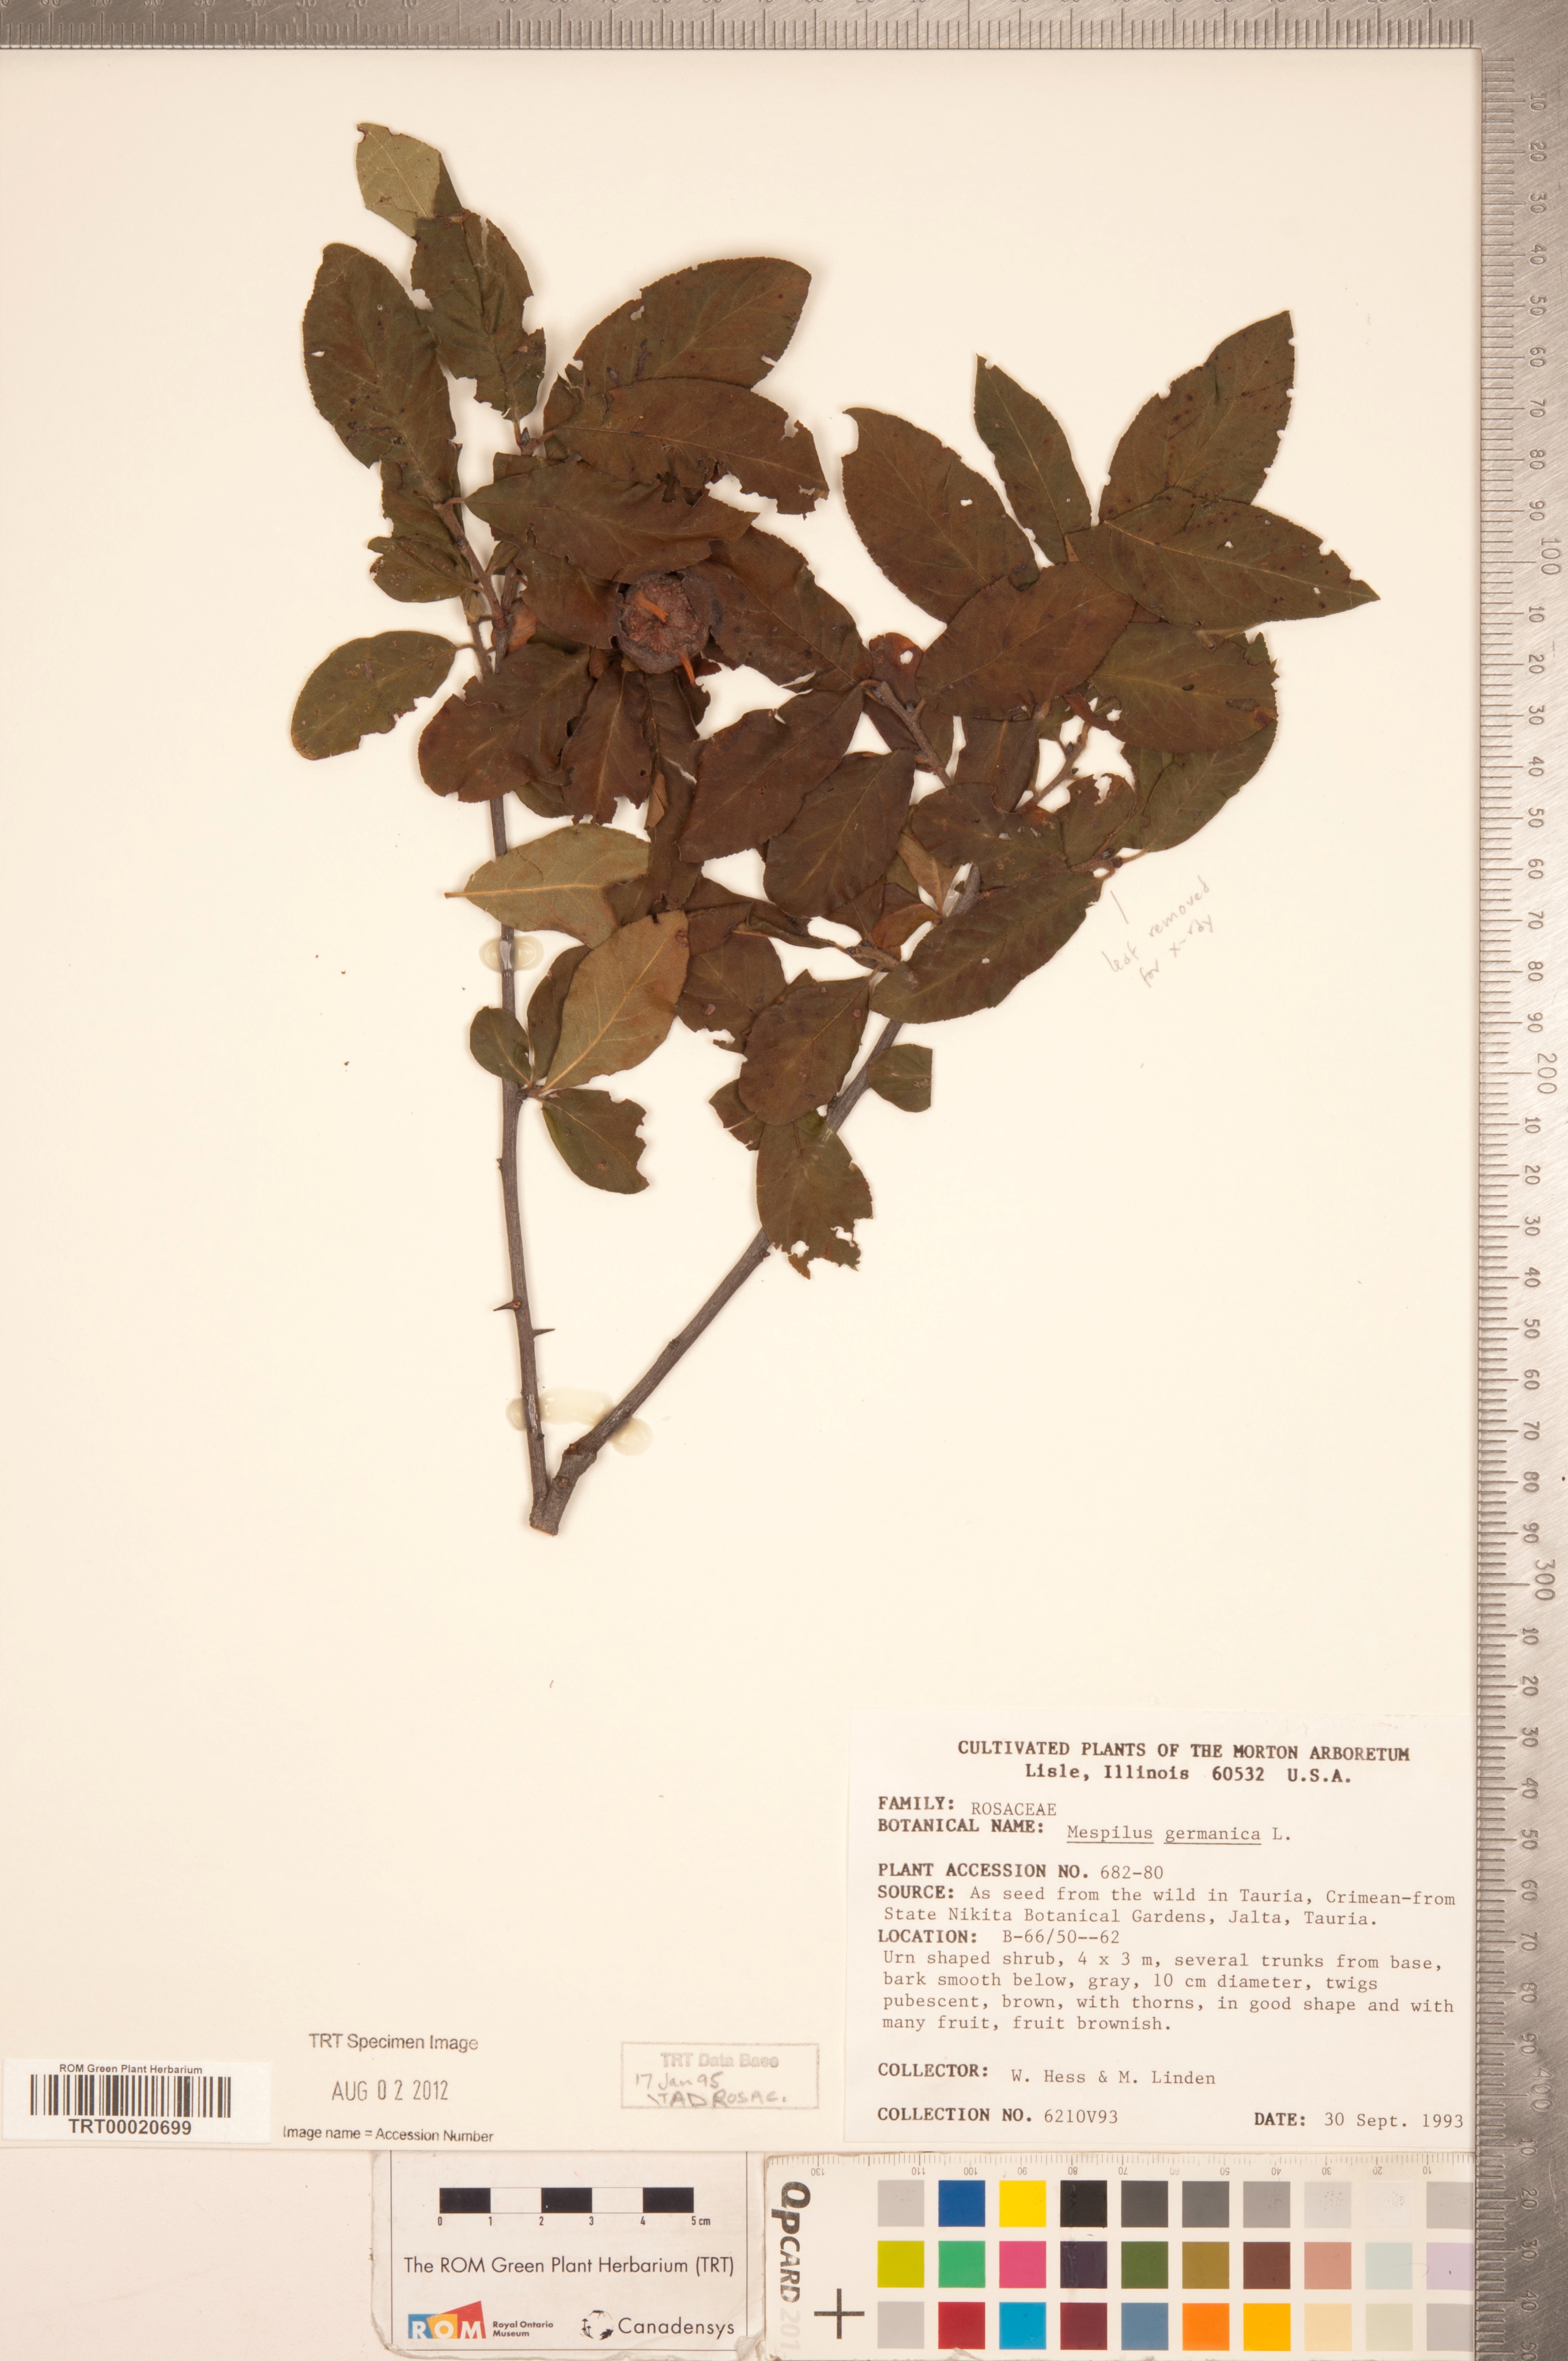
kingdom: Plantae
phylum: Tracheophyta
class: Magnoliopsida
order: Rosales
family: Rosaceae
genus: Mespilus
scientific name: Mespilus germanica
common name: Medlar
